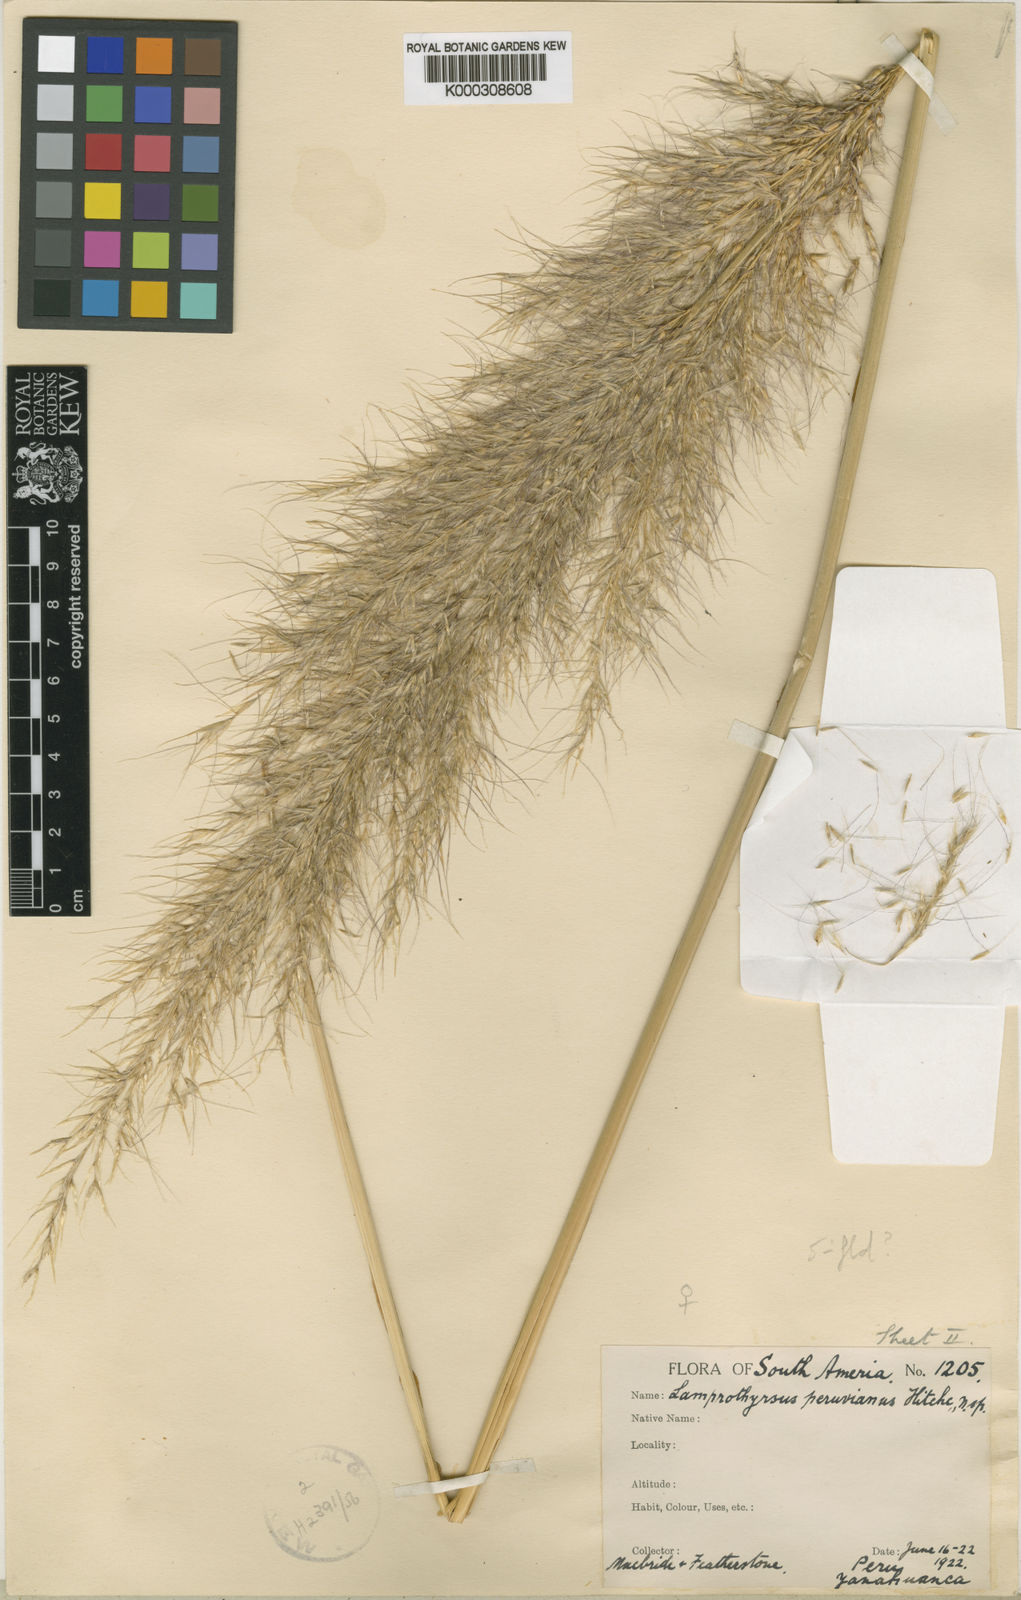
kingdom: Plantae
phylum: Tracheophyta
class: Liliopsida
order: Poales
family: Poaceae
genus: Cortaderia
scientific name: Cortaderia hieronymi
